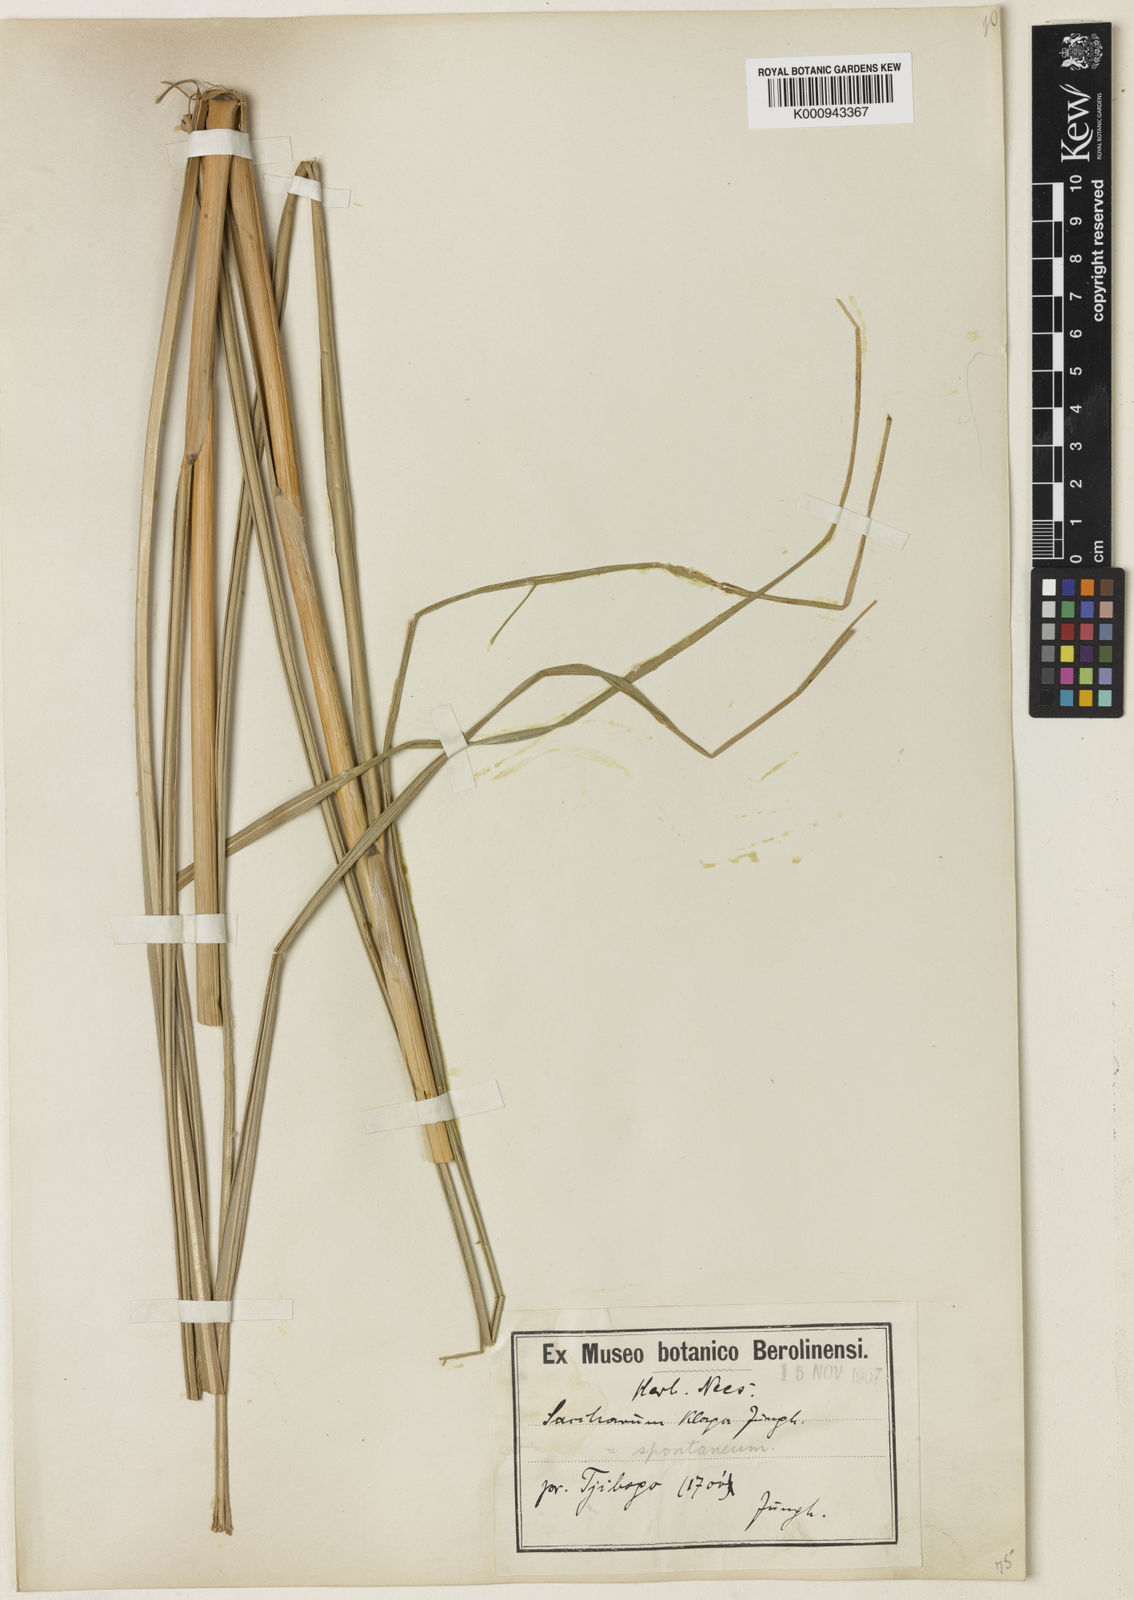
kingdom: Plantae
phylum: Tracheophyta
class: Liliopsida
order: Poales
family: Poaceae
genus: Saccharum
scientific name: Saccharum spontaneum
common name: Wild sugarcane
